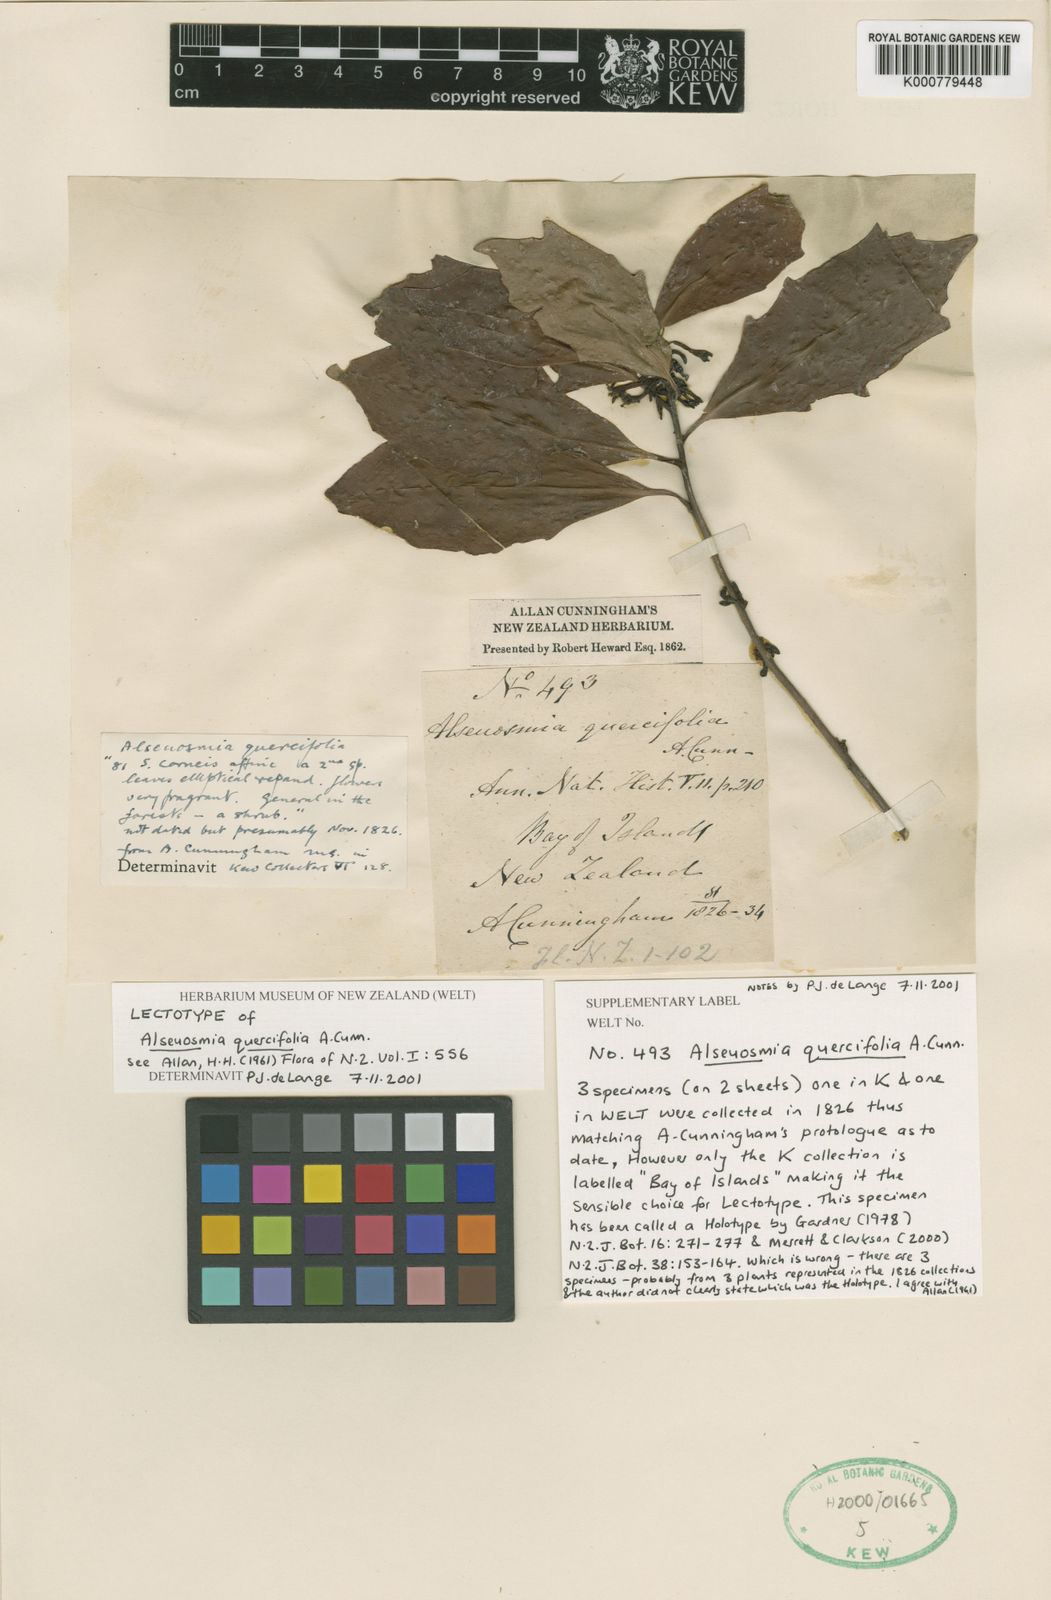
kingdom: Plantae
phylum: Tracheophyta
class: Magnoliopsida
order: Asterales
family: Alseuosmiaceae
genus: Alseuosmia
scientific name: Alseuosmia quercifolia
